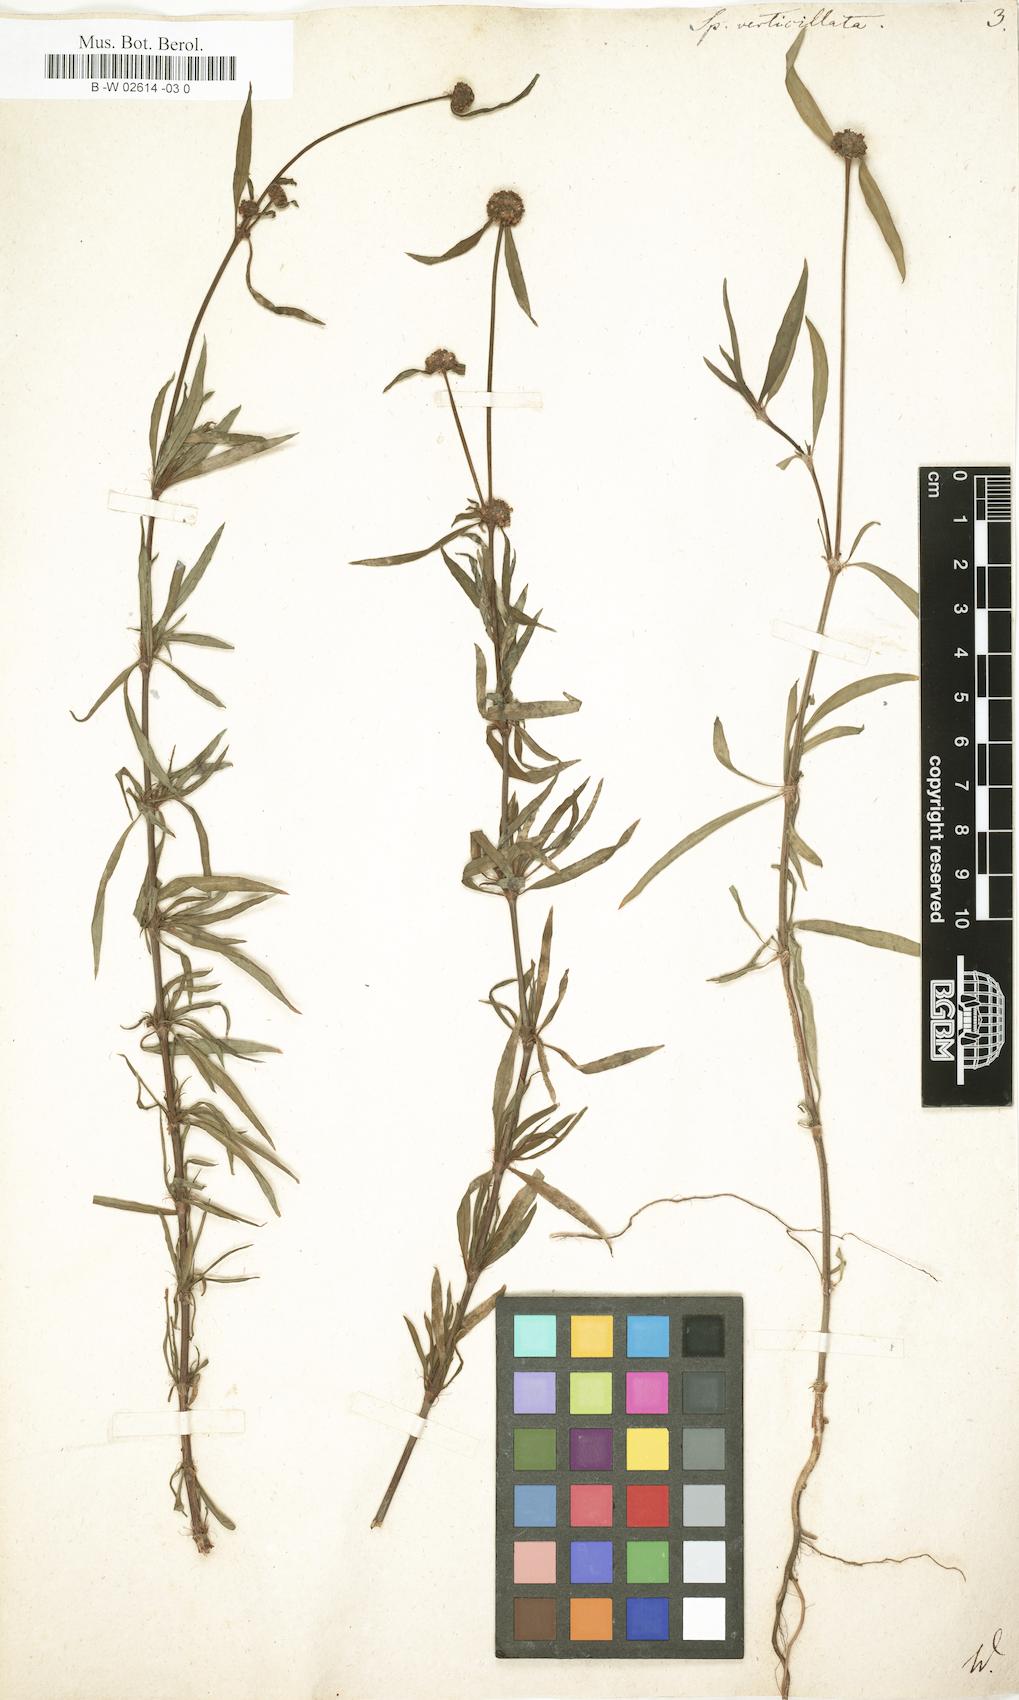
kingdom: Plantae
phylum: Tracheophyta
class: Magnoliopsida
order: Gentianales
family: Rubiaceae
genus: Spermacoce
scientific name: Spermacoce verticillata
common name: Shrubby false buttonweed
